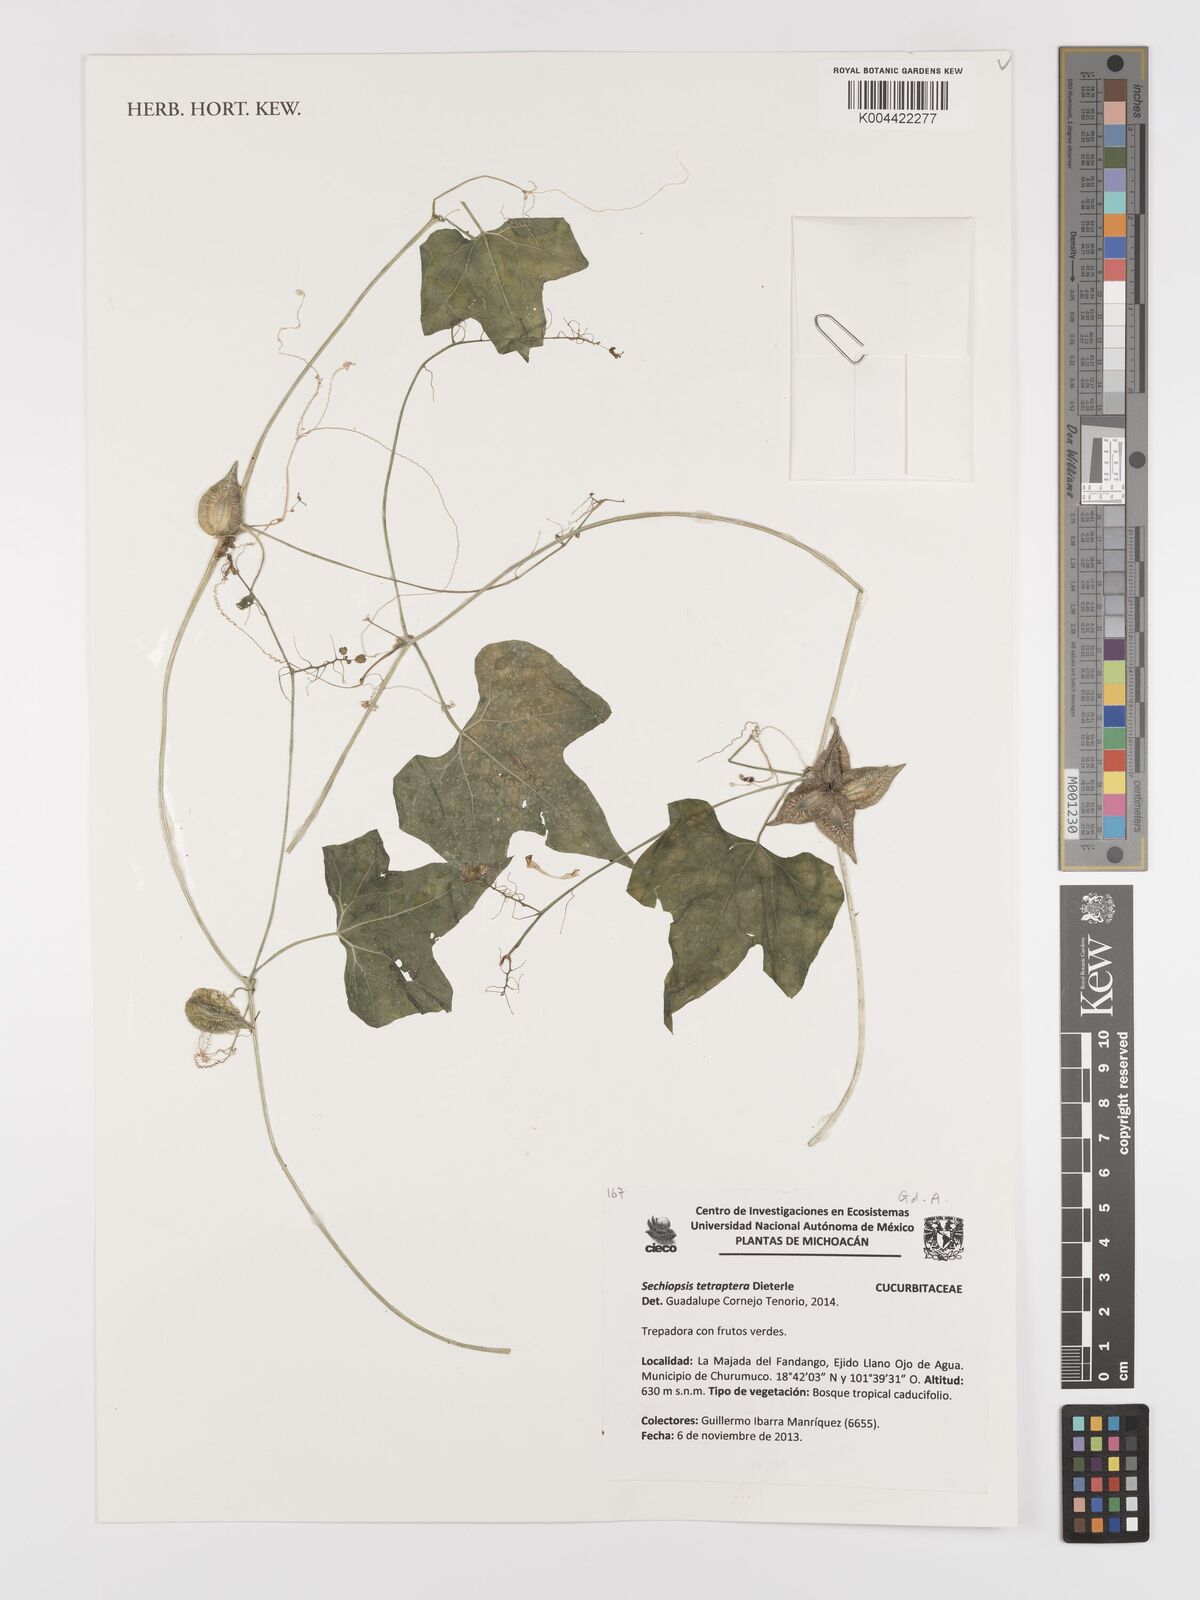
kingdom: Plantae
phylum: Tracheophyta
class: Magnoliopsida
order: Cucurbitales
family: Cucurbitaceae
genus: Sechiopsis
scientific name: Sechiopsis tetraptera
